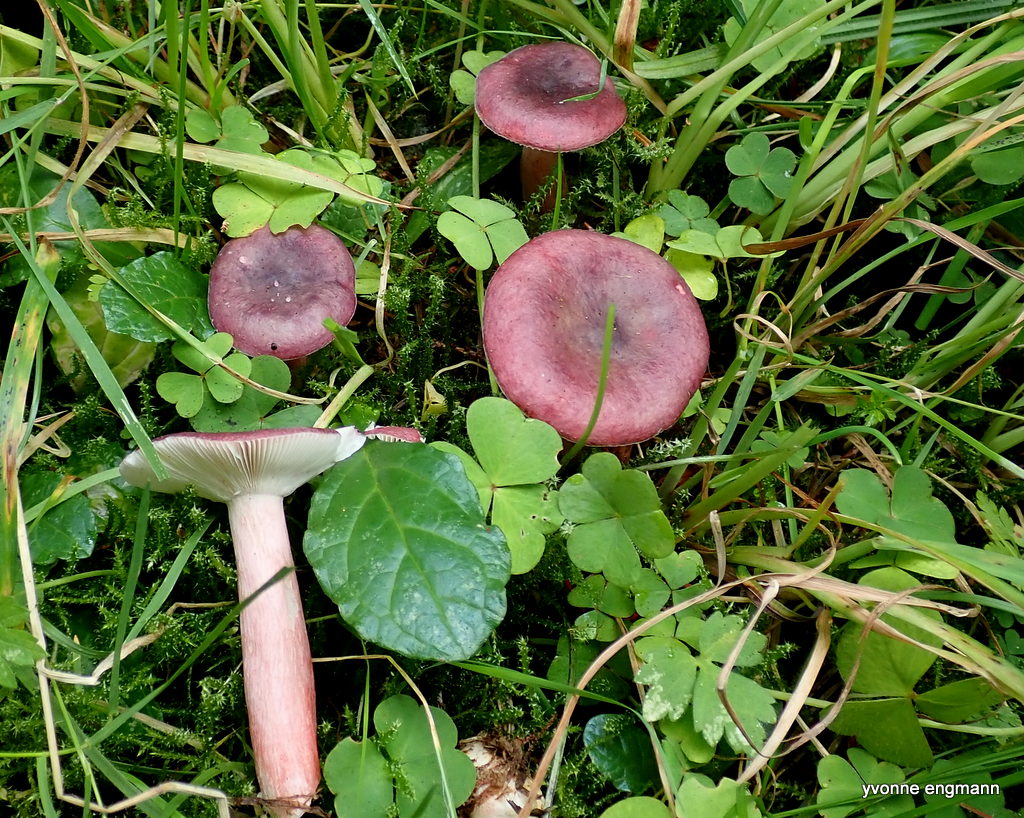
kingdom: Fungi
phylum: Basidiomycota
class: Agaricomycetes
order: Russulales
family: Russulaceae
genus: Russula
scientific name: Russula queletii
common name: Quélets skørhat
